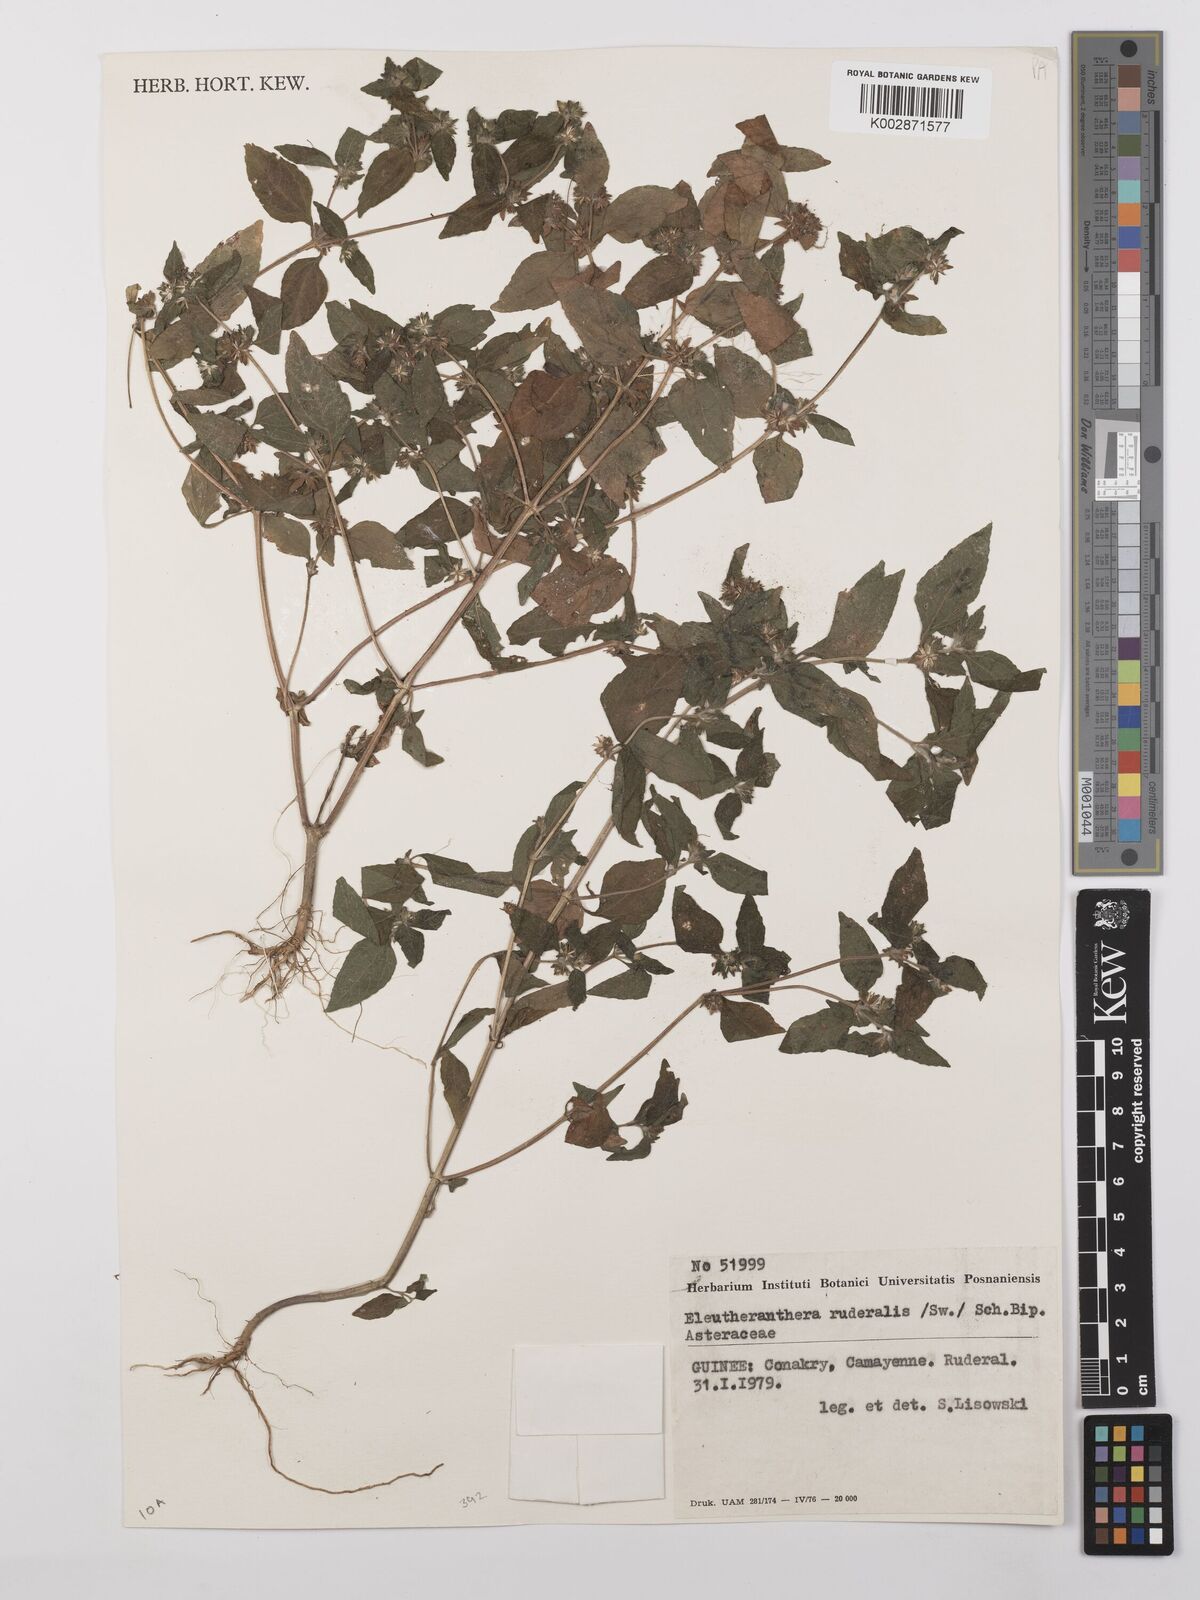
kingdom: Plantae
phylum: Tracheophyta
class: Magnoliopsida
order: Asterales
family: Asteraceae
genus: Eleutheranthera
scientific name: Eleutheranthera ruderalis
